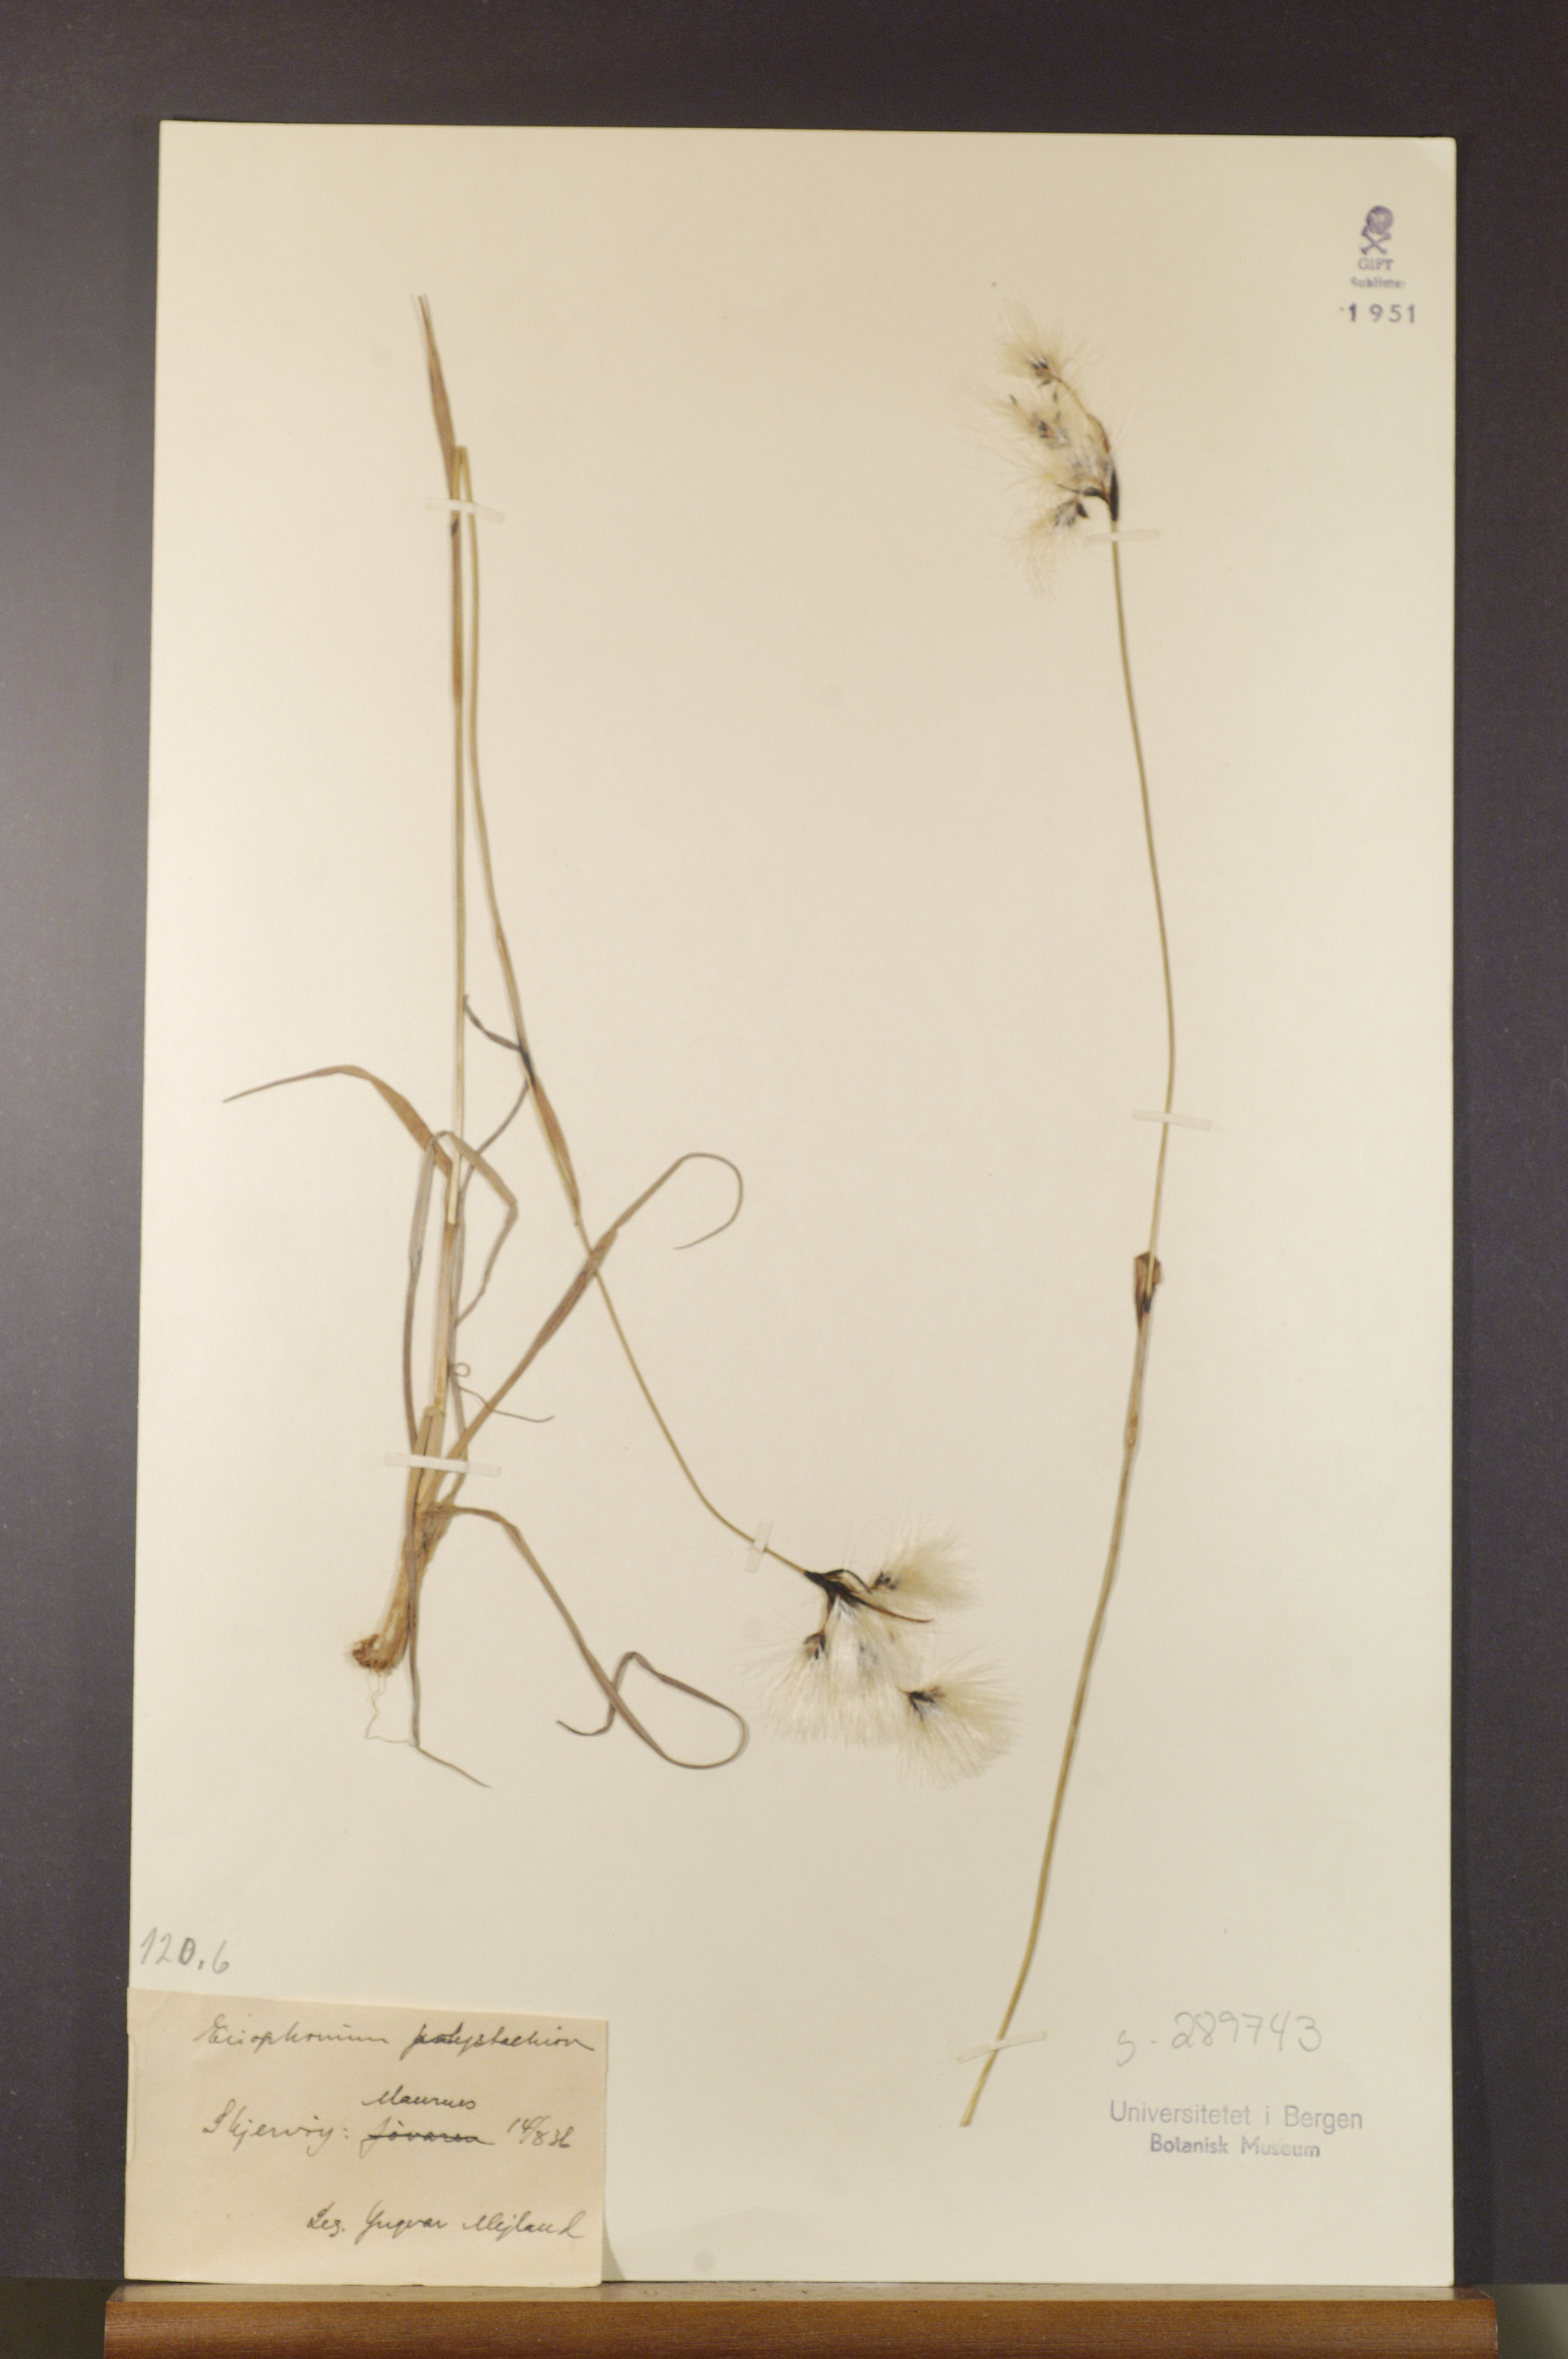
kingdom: Plantae
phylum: Tracheophyta
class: Liliopsida
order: Poales
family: Cyperaceae
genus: Eriophorum
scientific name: Eriophorum angustifolium
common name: Common cottongrass
